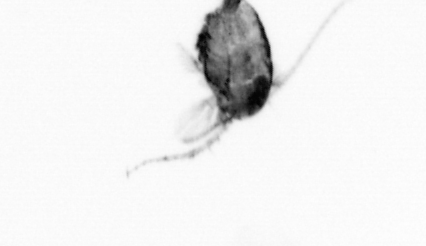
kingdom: Animalia
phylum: Arthropoda
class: Copepoda
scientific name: Copepoda
